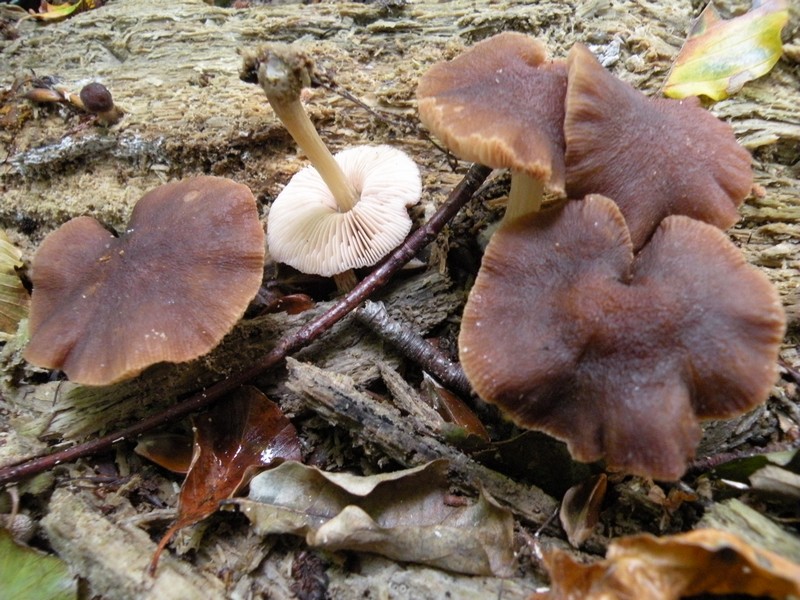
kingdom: Fungi
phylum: Basidiomycota
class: Agaricomycetes
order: Agaricales
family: Pluteaceae
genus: Pluteus
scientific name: Pluteus phlebophorus
